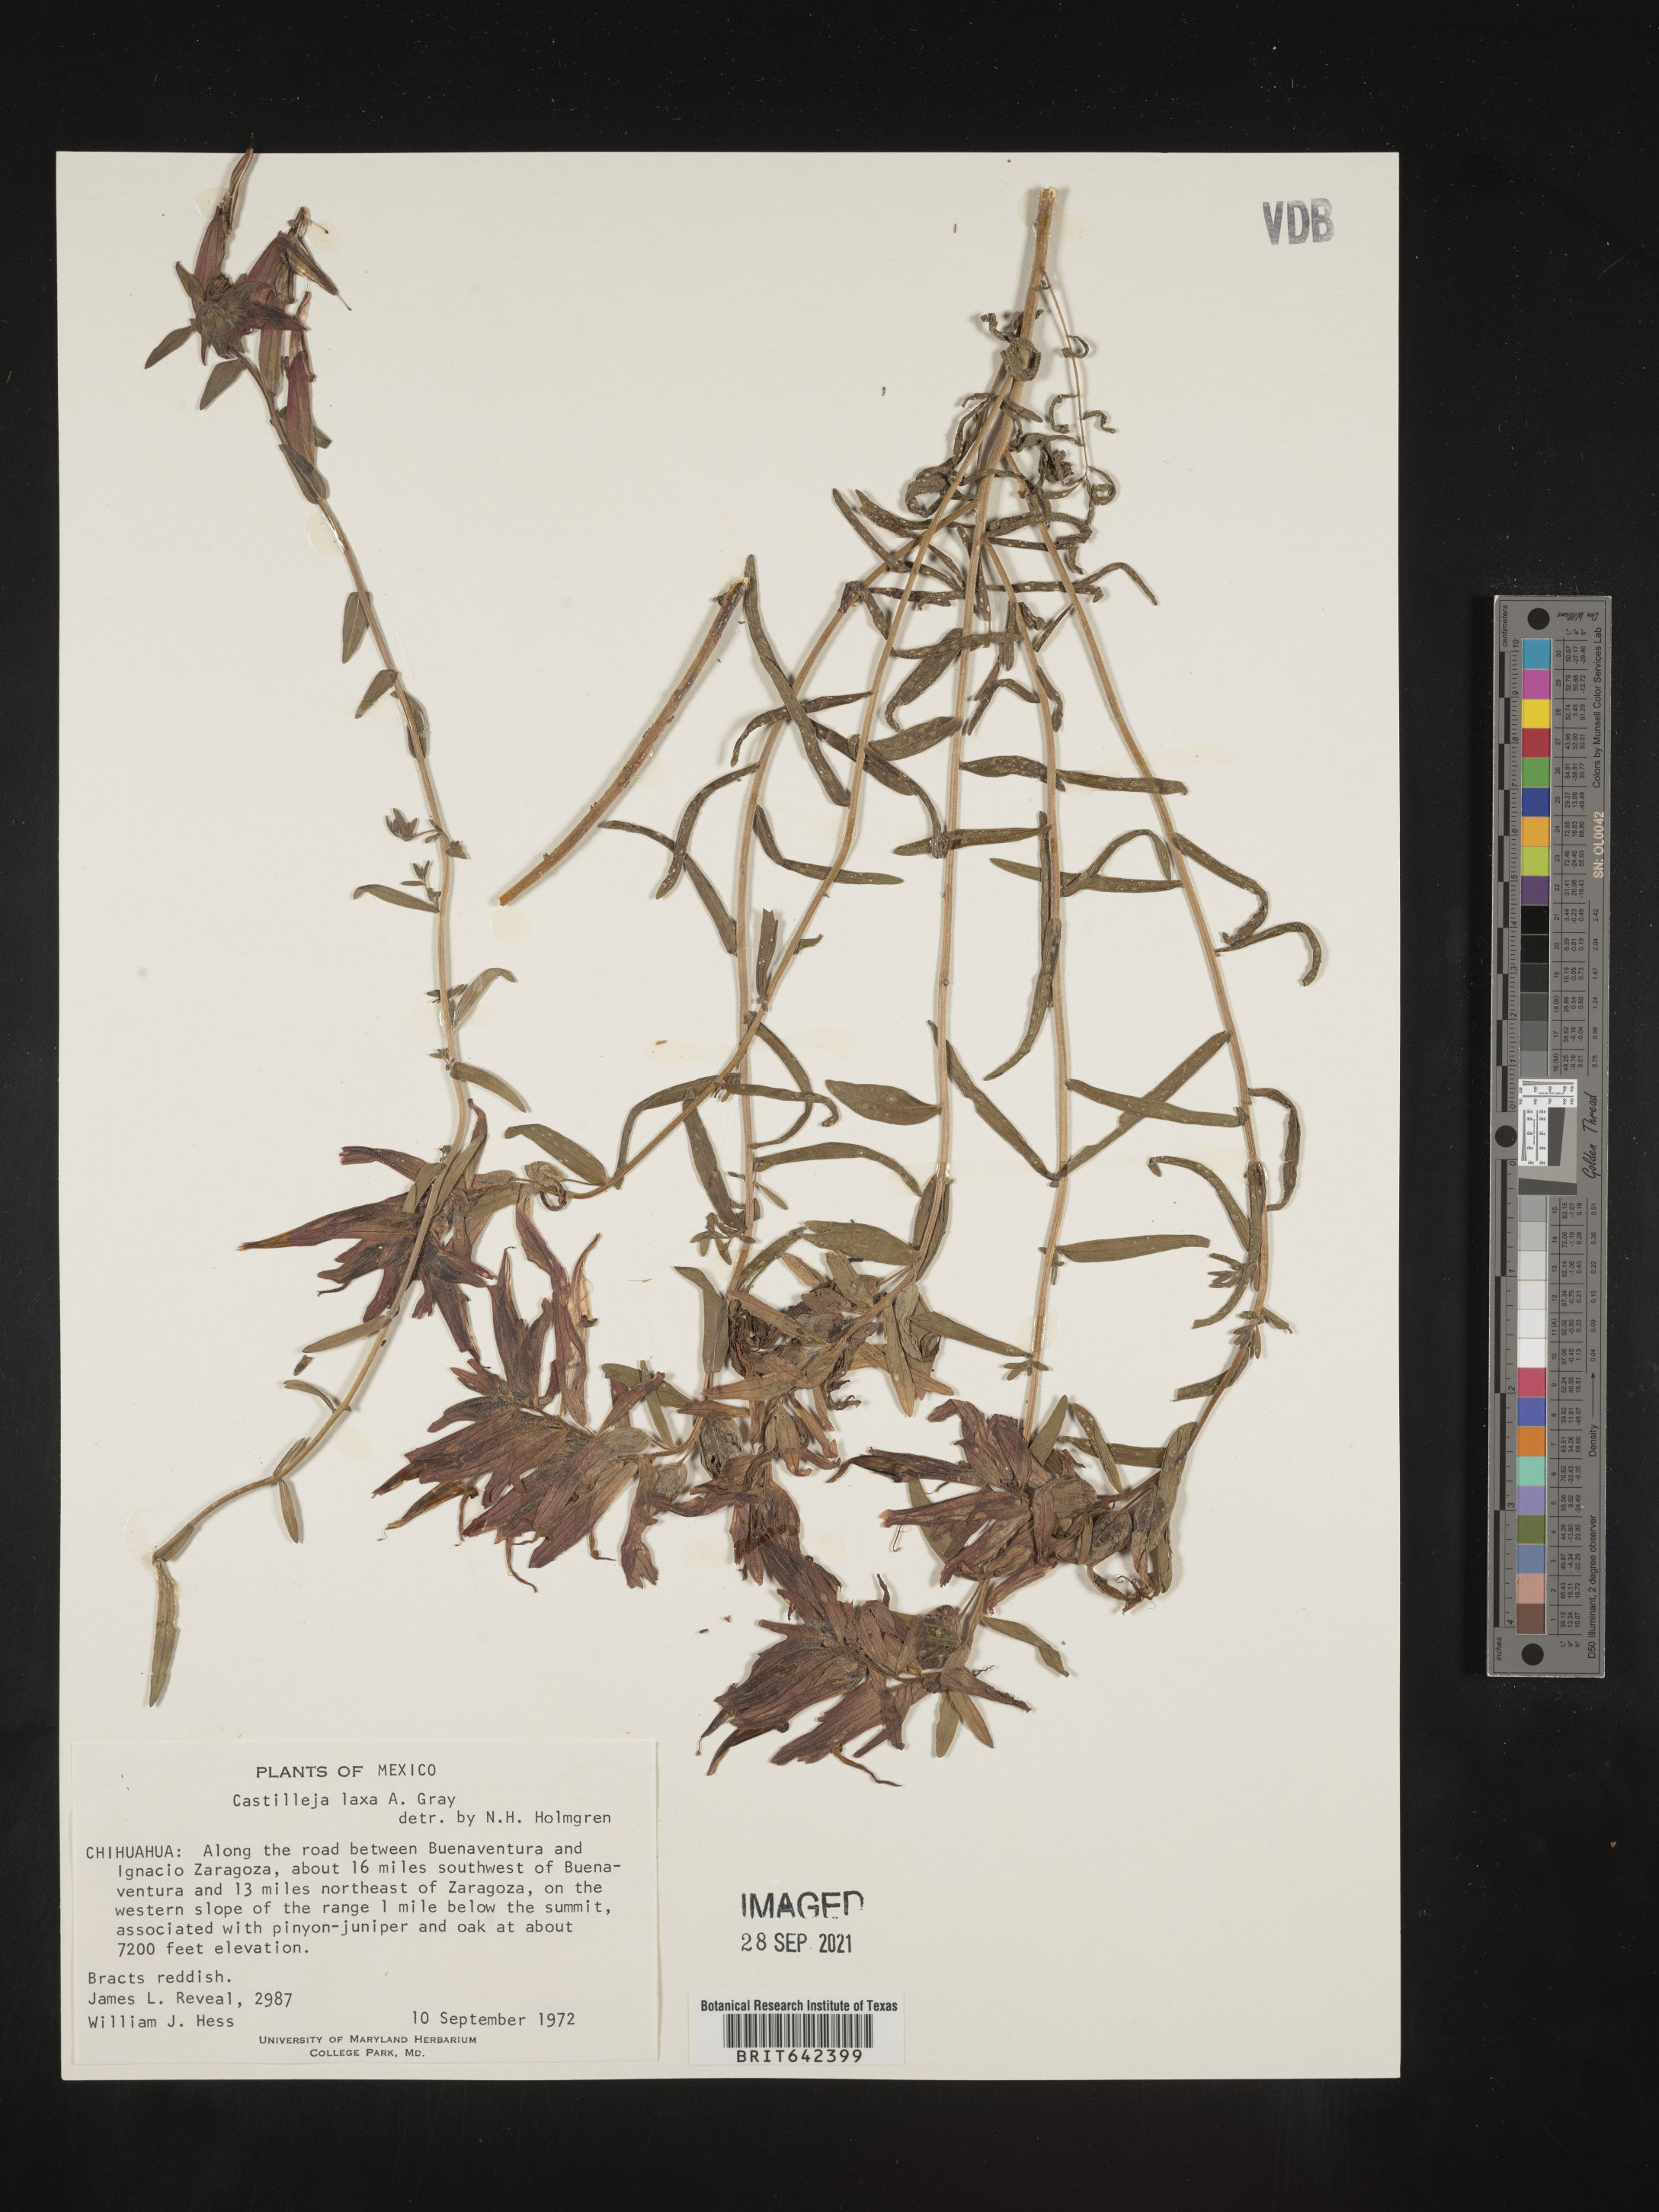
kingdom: Plantae
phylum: Tracheophyta
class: Magnoliopsida
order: Lamiales
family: Orobanchaceae
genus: Castilleja
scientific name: Castilleja
